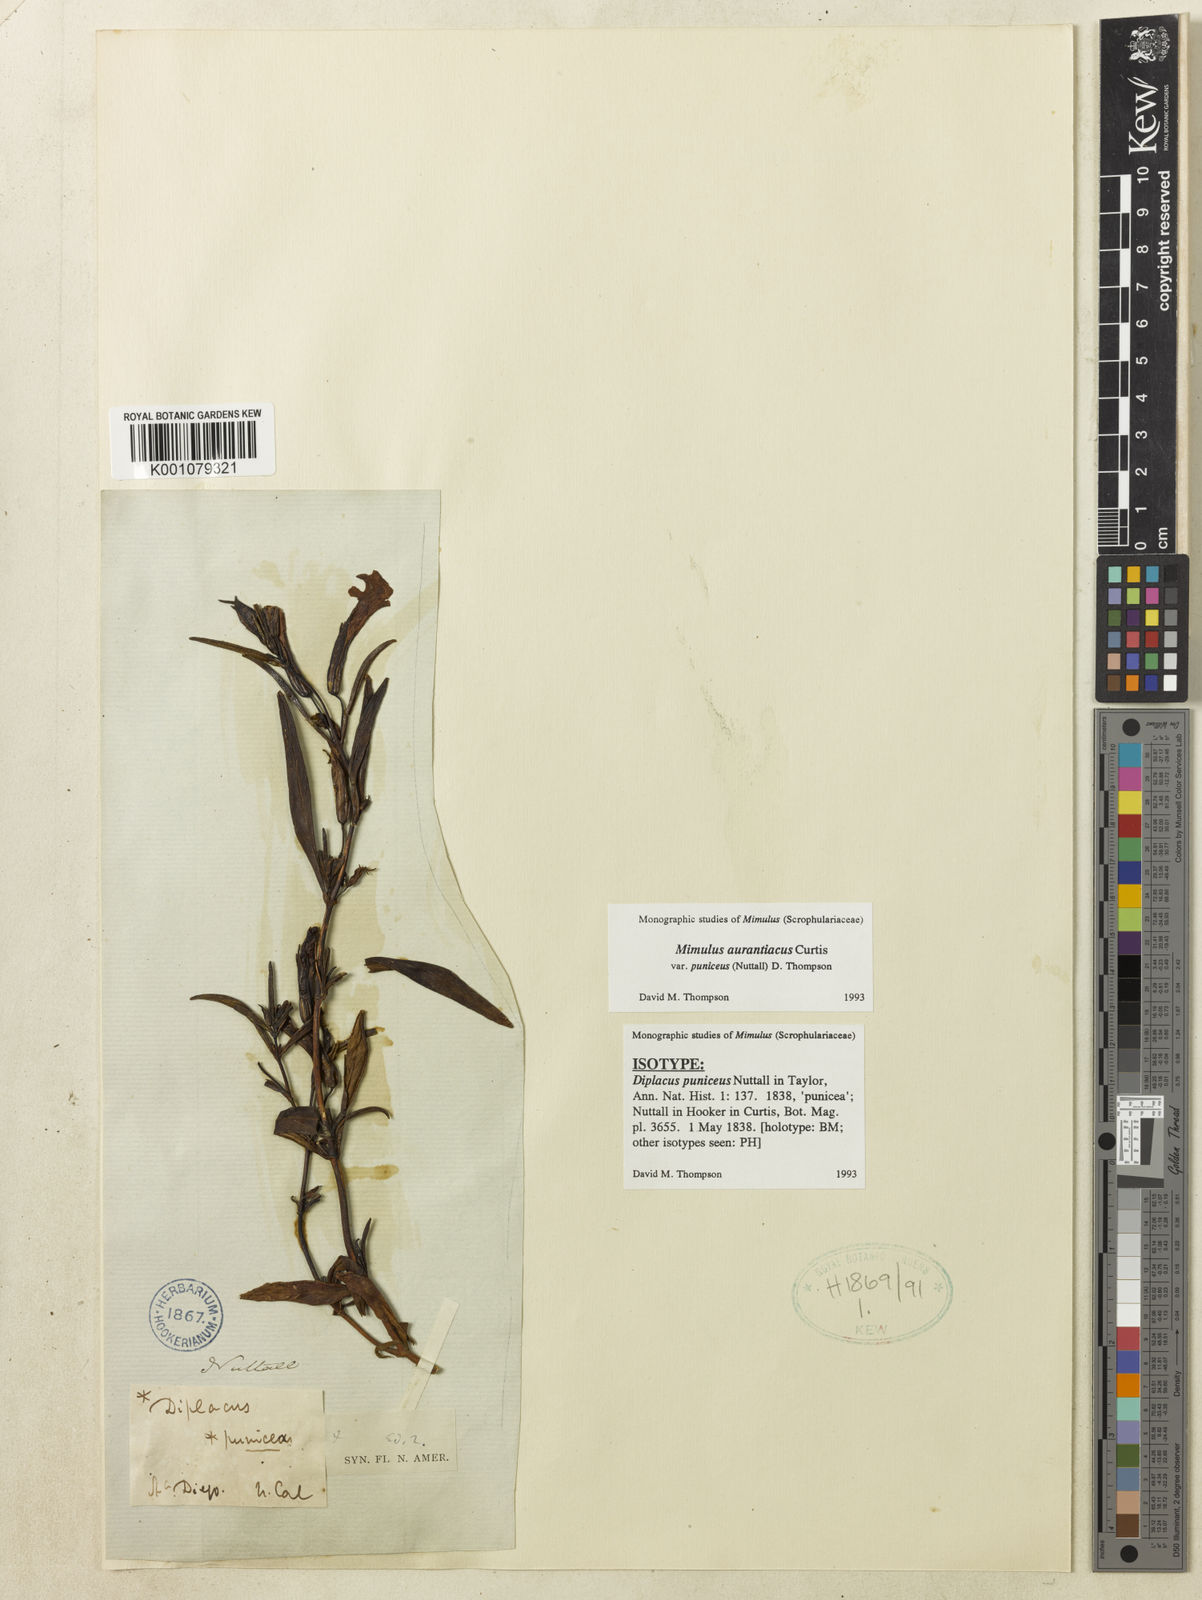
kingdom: Plantae
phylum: Tracheophyta
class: Magnoliopsida
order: Lamiales
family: Phrymaceae
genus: Diplacus
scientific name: Diplacus puniceus
